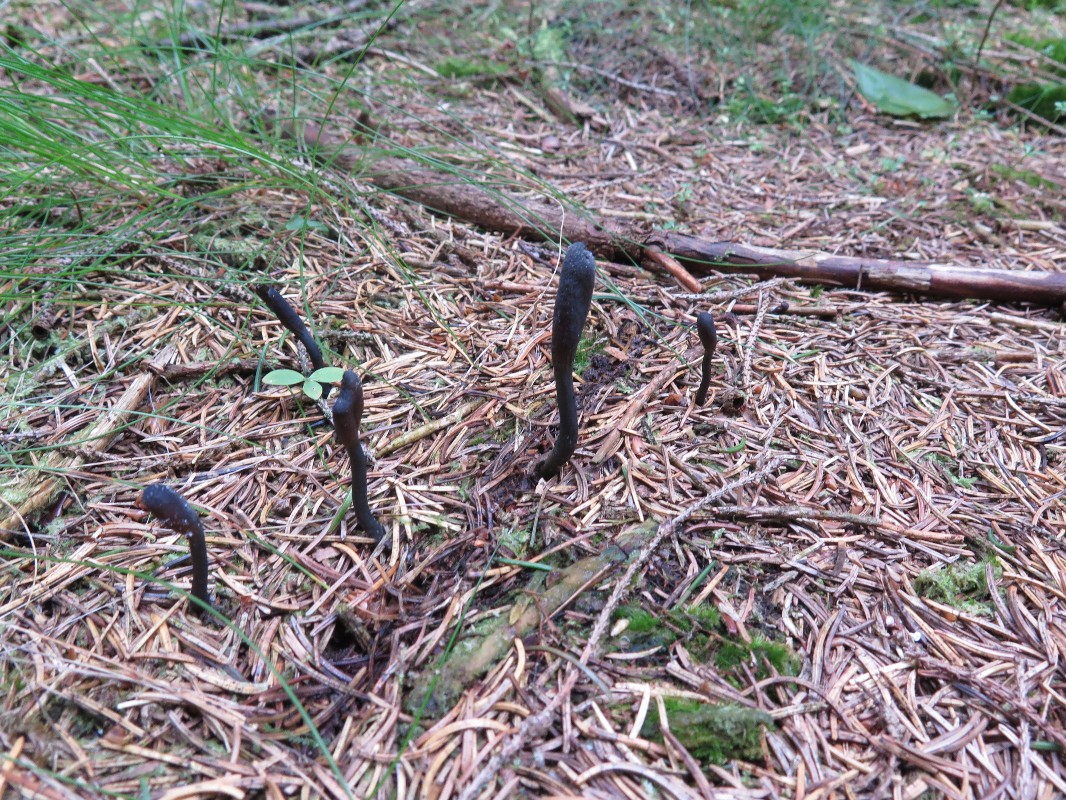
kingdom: Fungi
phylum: Ascomycota
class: Sordariomycetes
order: Hypocreales
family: Ophiocordycipitaceae
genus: Tolypocladium
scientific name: Tolypocladium ophioglossoides
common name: slank snyltekølle
